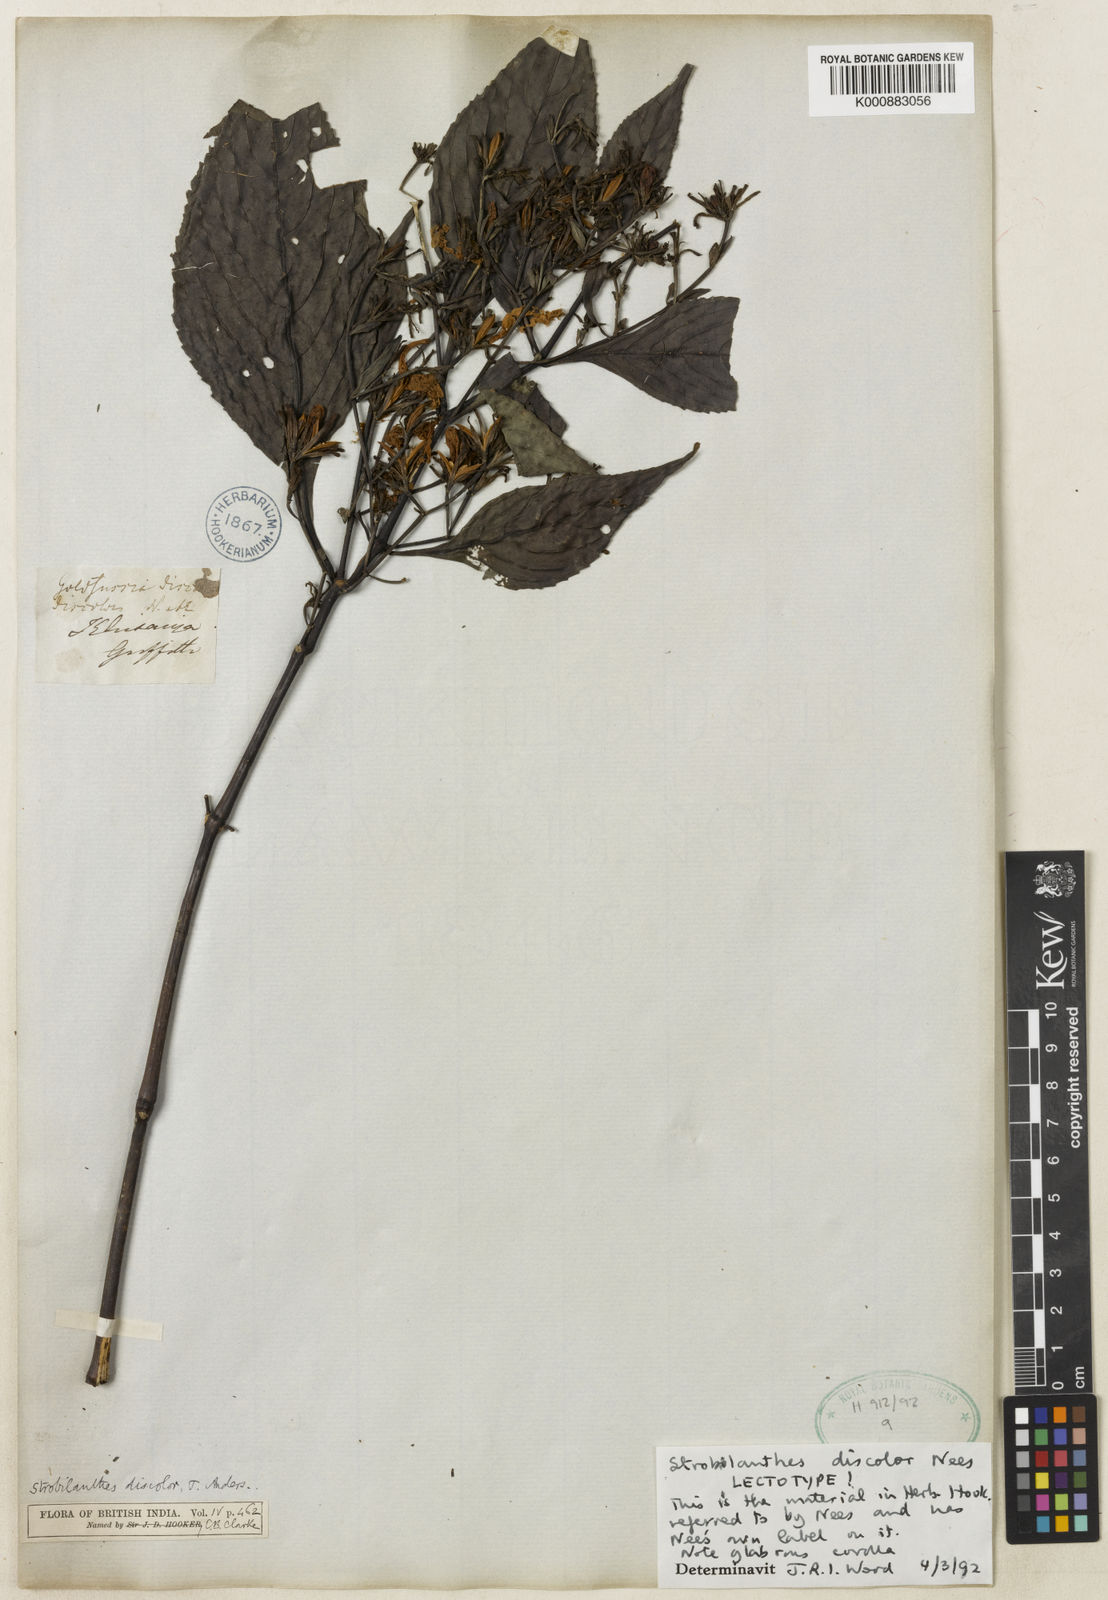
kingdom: Plantae
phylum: Tracheophyta
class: Magnoliopsida
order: Lamiales
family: Acanthaceae
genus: Strobilanthes
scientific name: Strobilanthes discolor
